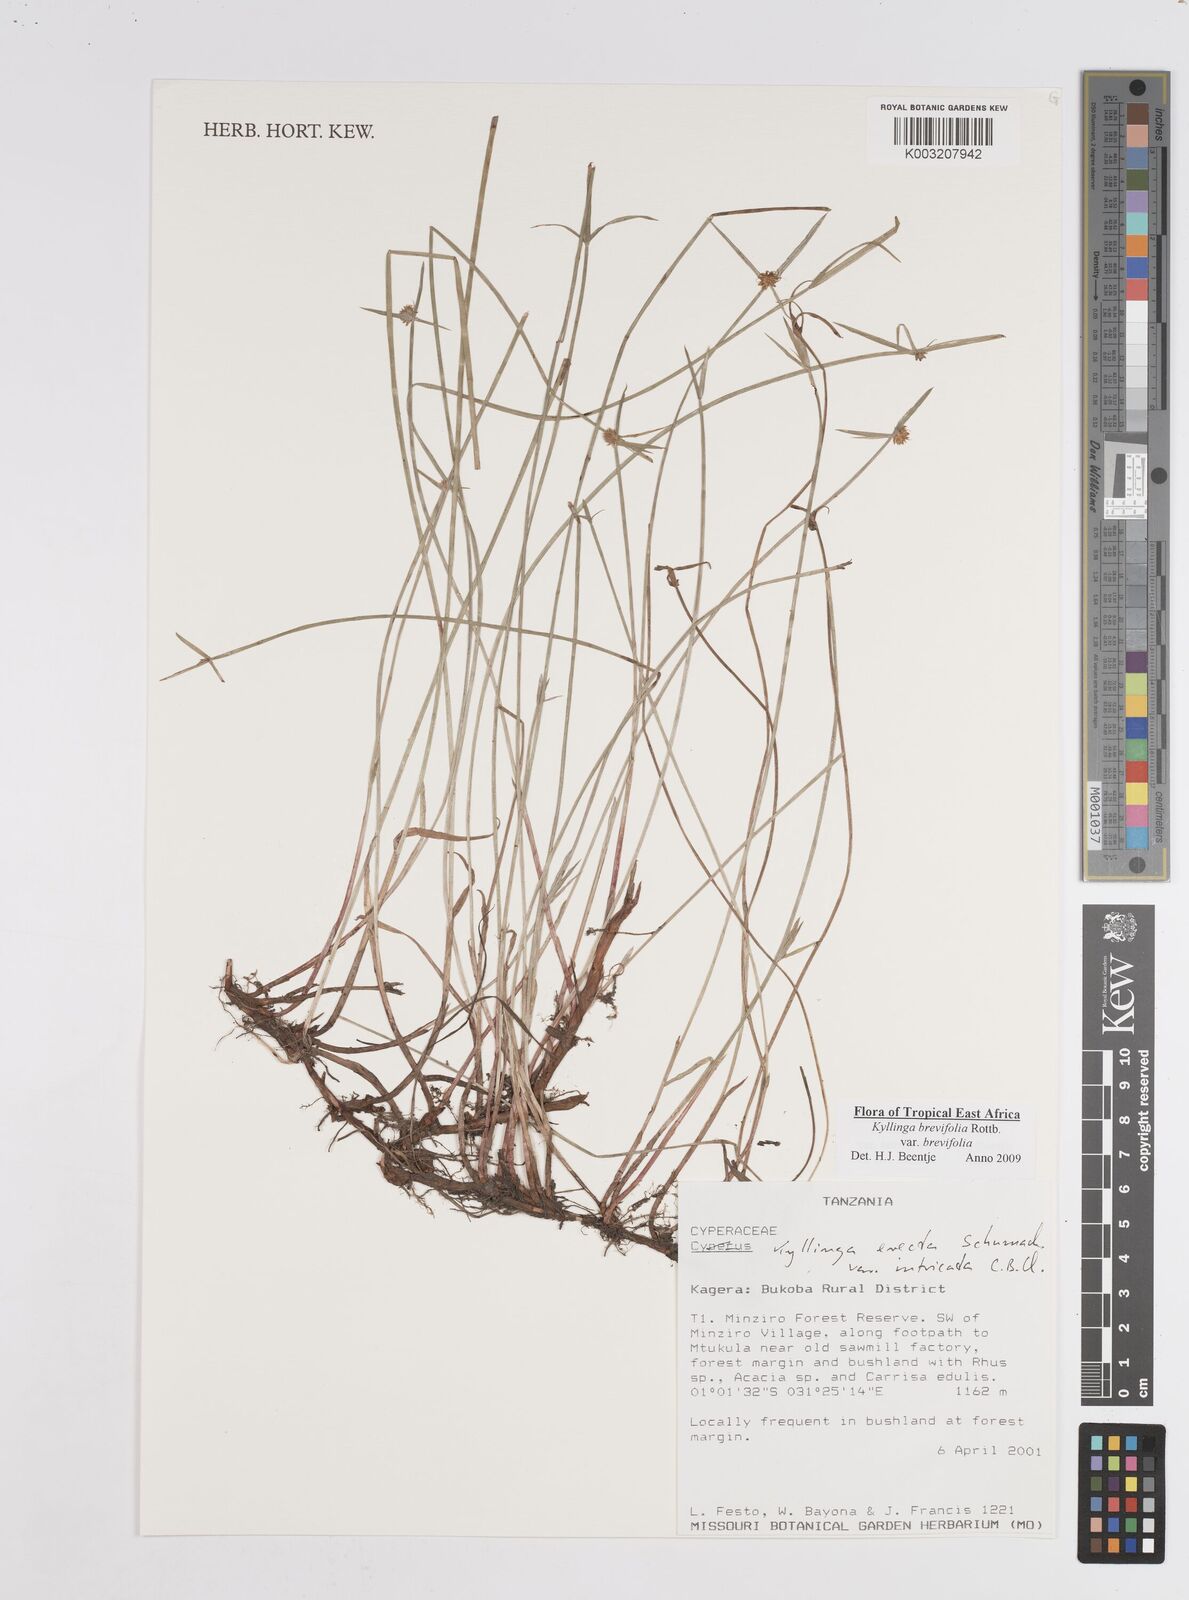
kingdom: Plantae
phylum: Tracheophyta
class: Liliopsida
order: Poales
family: Cyperaceae
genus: Cyperus
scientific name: Cyperus brevifolius
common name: Globe kyllinga
